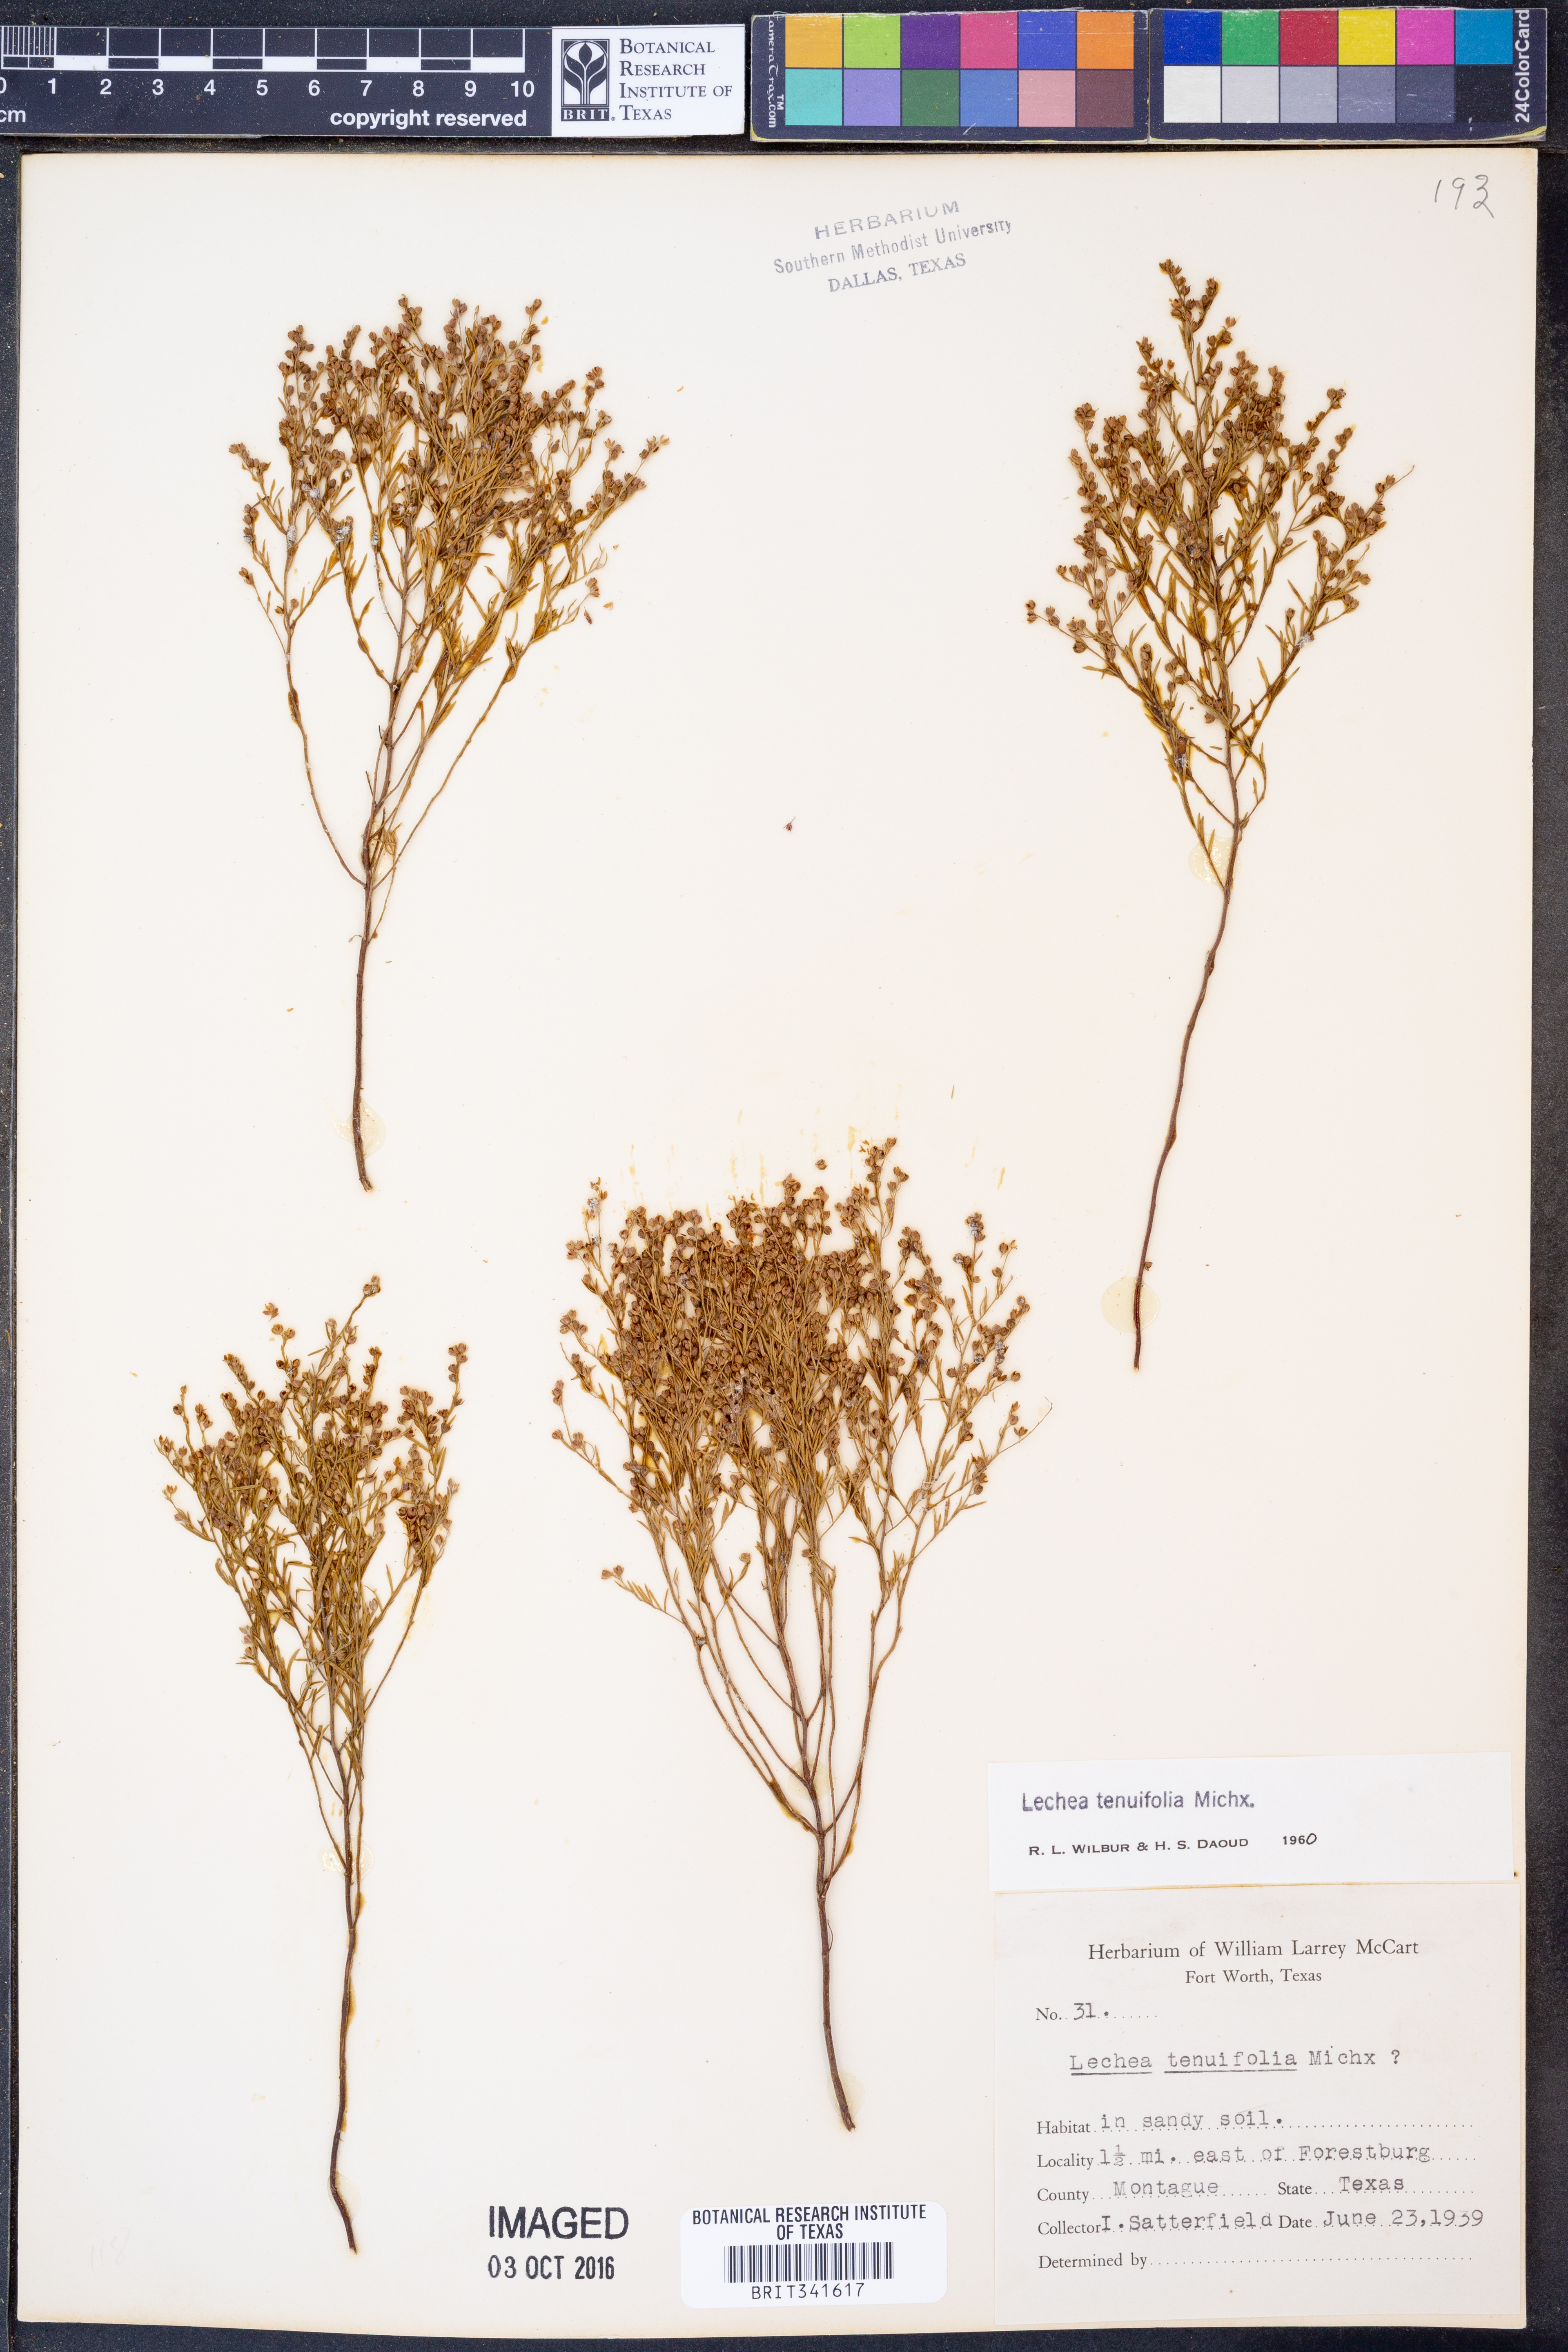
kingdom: Plantae
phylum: Tracheophyta
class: Magnoliopsida
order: Malvales
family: Cistaceae
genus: Lechea
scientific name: Lechea tenuifolia
